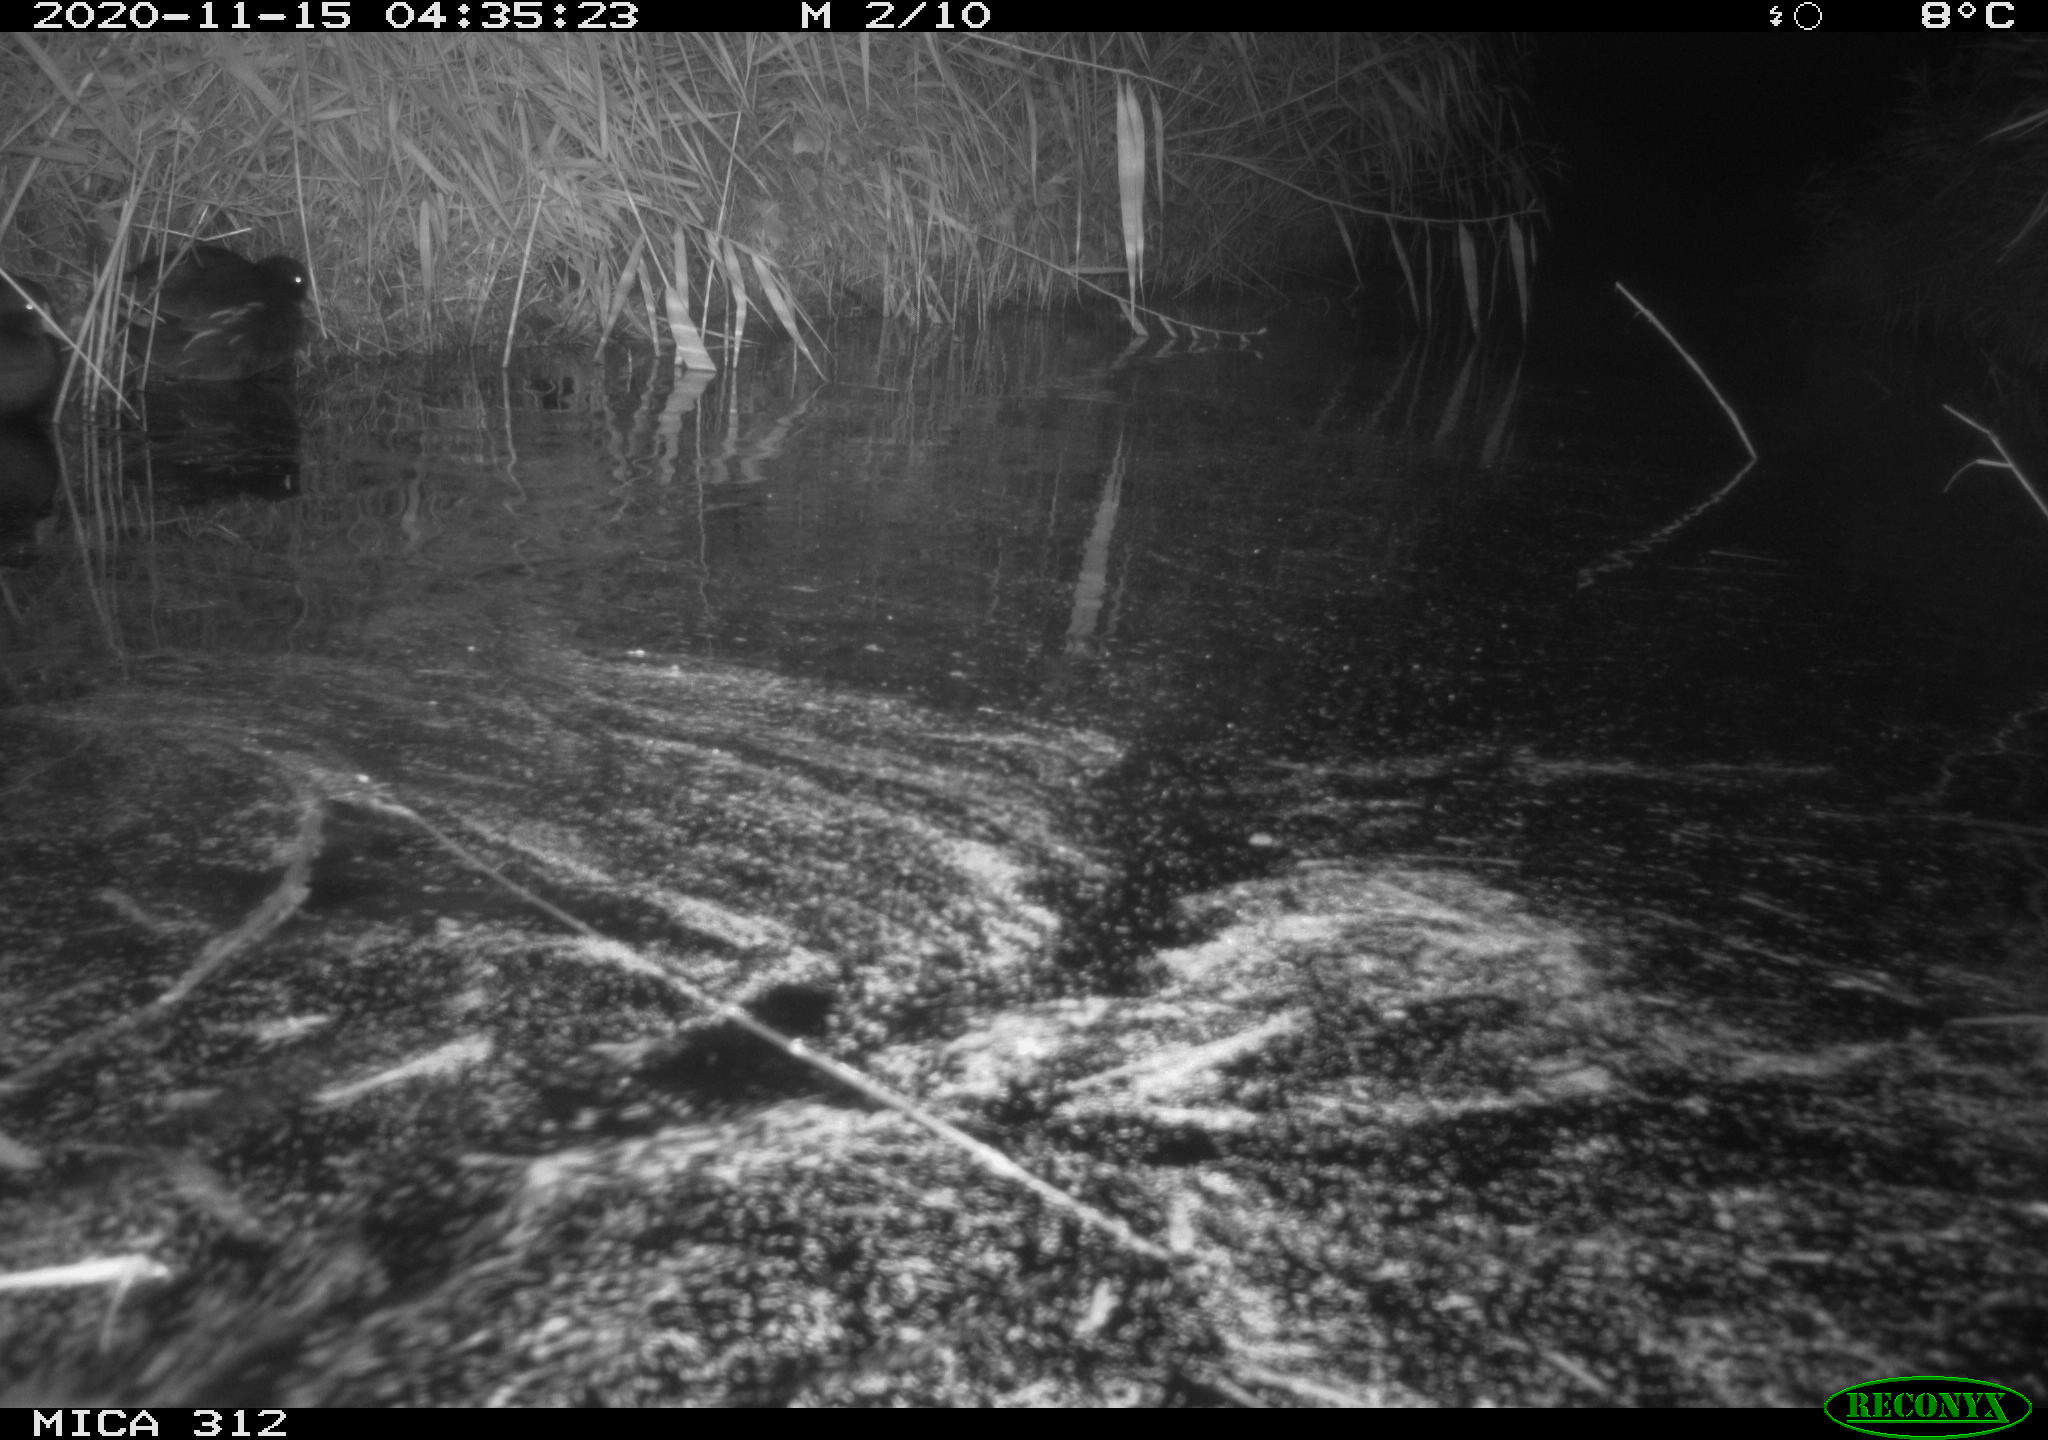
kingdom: Animalia
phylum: Chordata
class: Mammalia
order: Rodentia
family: Muridae
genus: Rattus
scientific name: Rattus norvegicus
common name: Brown rat
